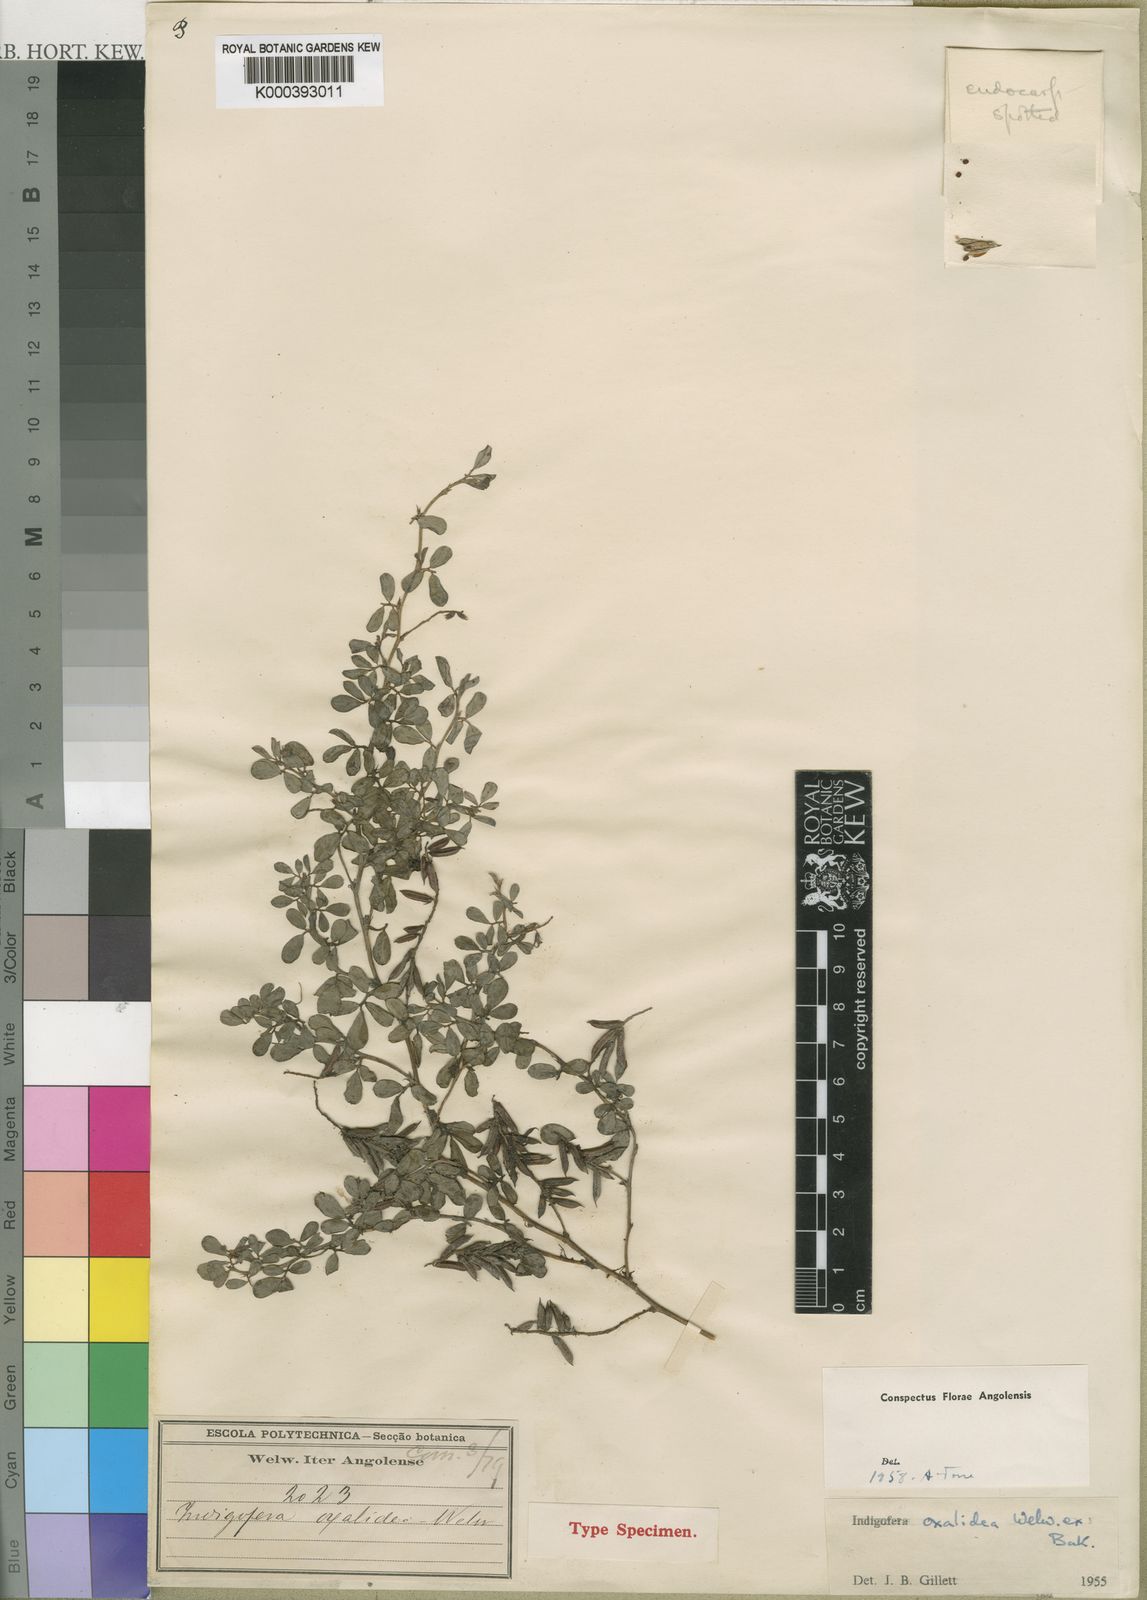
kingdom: Plantae
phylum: Tracheophyta
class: Magnoliopsida
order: Fabales
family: Fabaceae
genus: Indigofera
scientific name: Indigofera oxalidea
